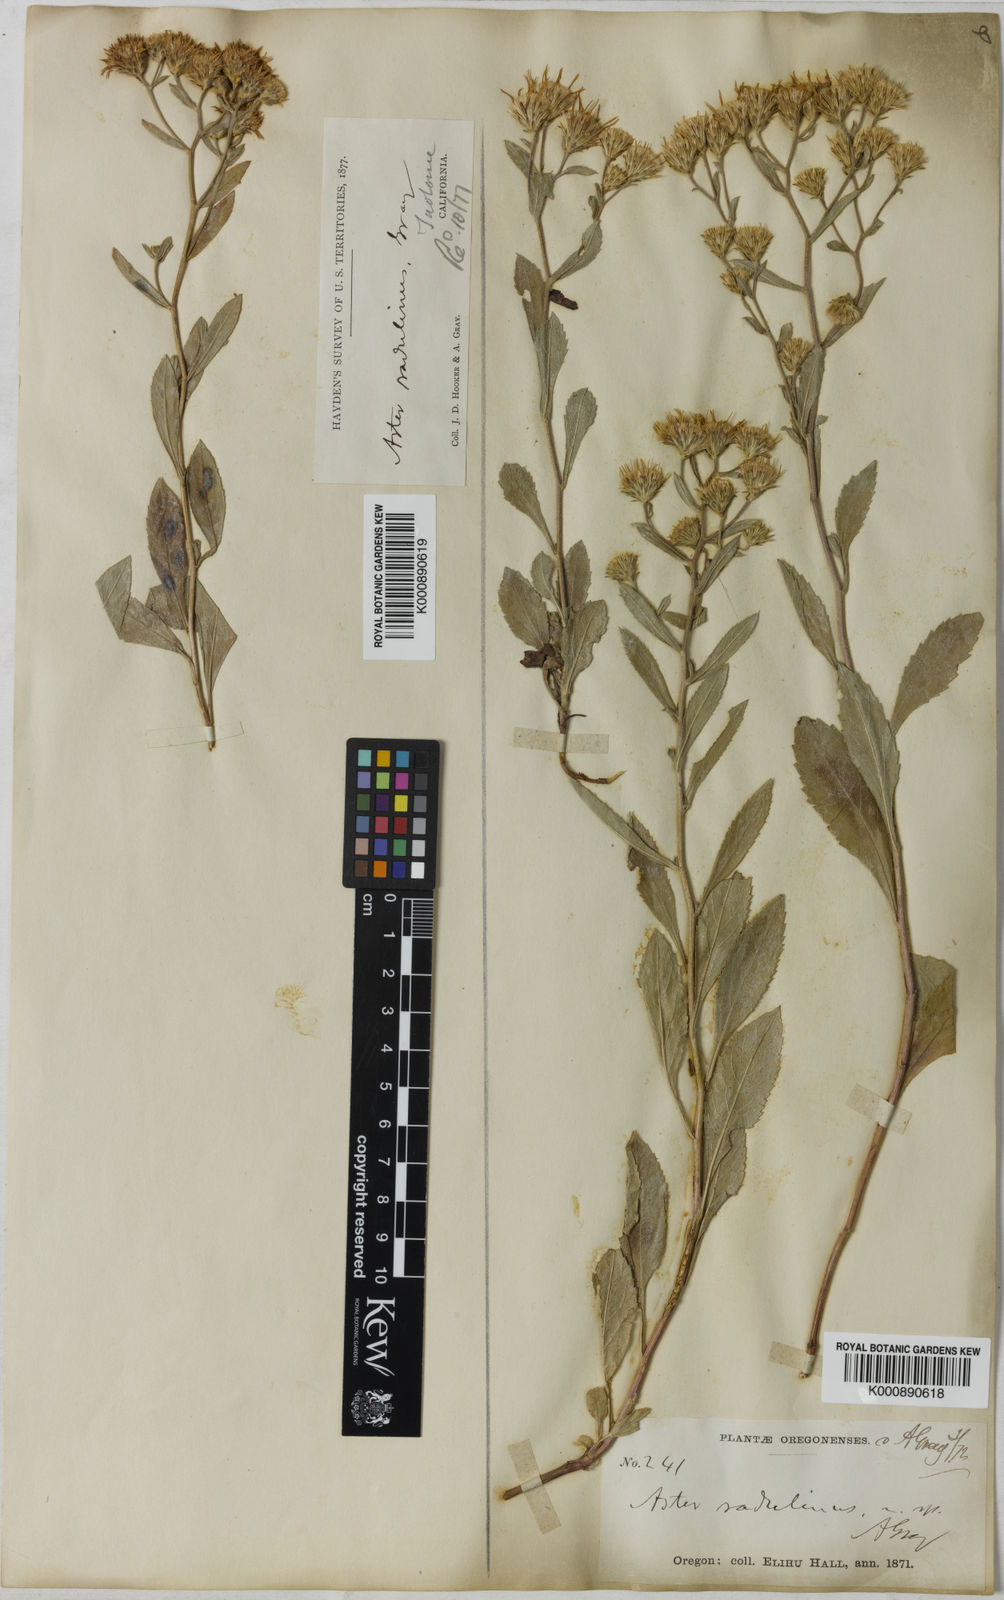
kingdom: Plantae
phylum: Tracheophyta
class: Magnoliopsida
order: Asterales
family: Asteraceae
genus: Eurybia
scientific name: Eurybia radulina
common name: Rough-leaved aster
